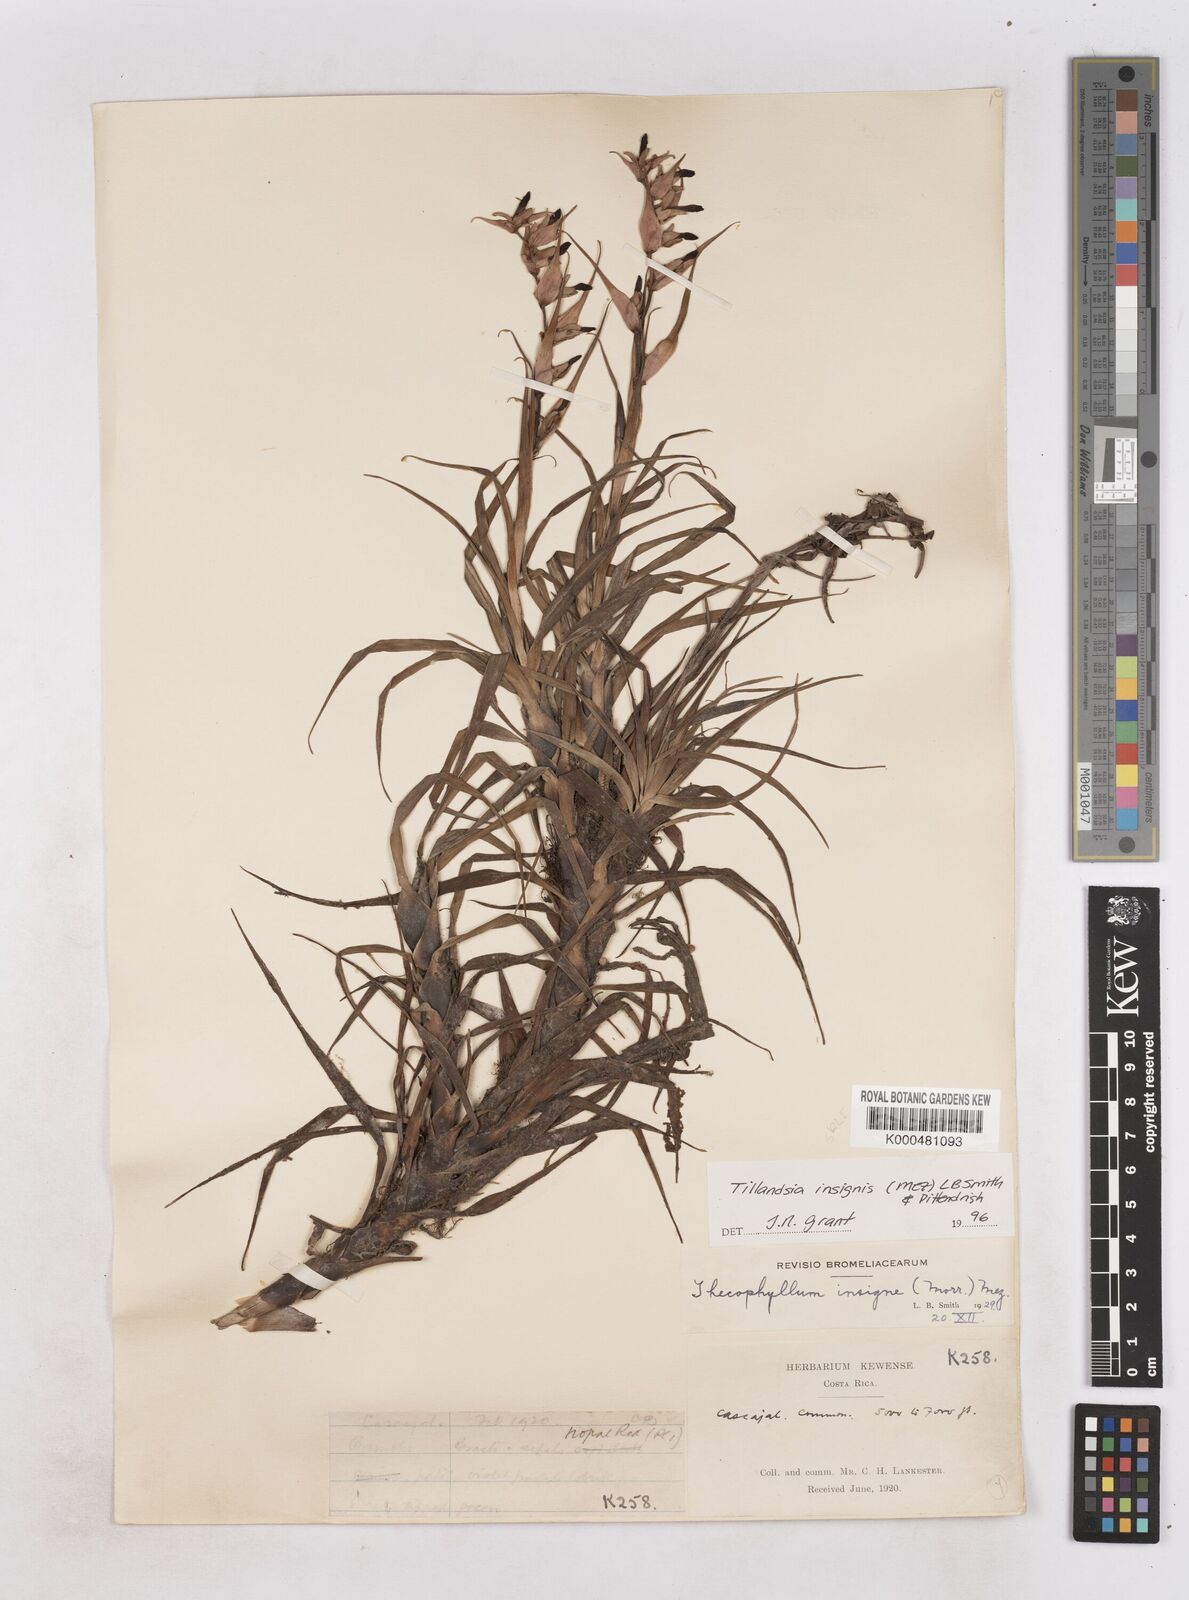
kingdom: Plantae
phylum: Tracheophyta
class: Liliopsida
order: Poales
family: Bromeliaceae
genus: Tillandsia
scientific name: Tillandsia
